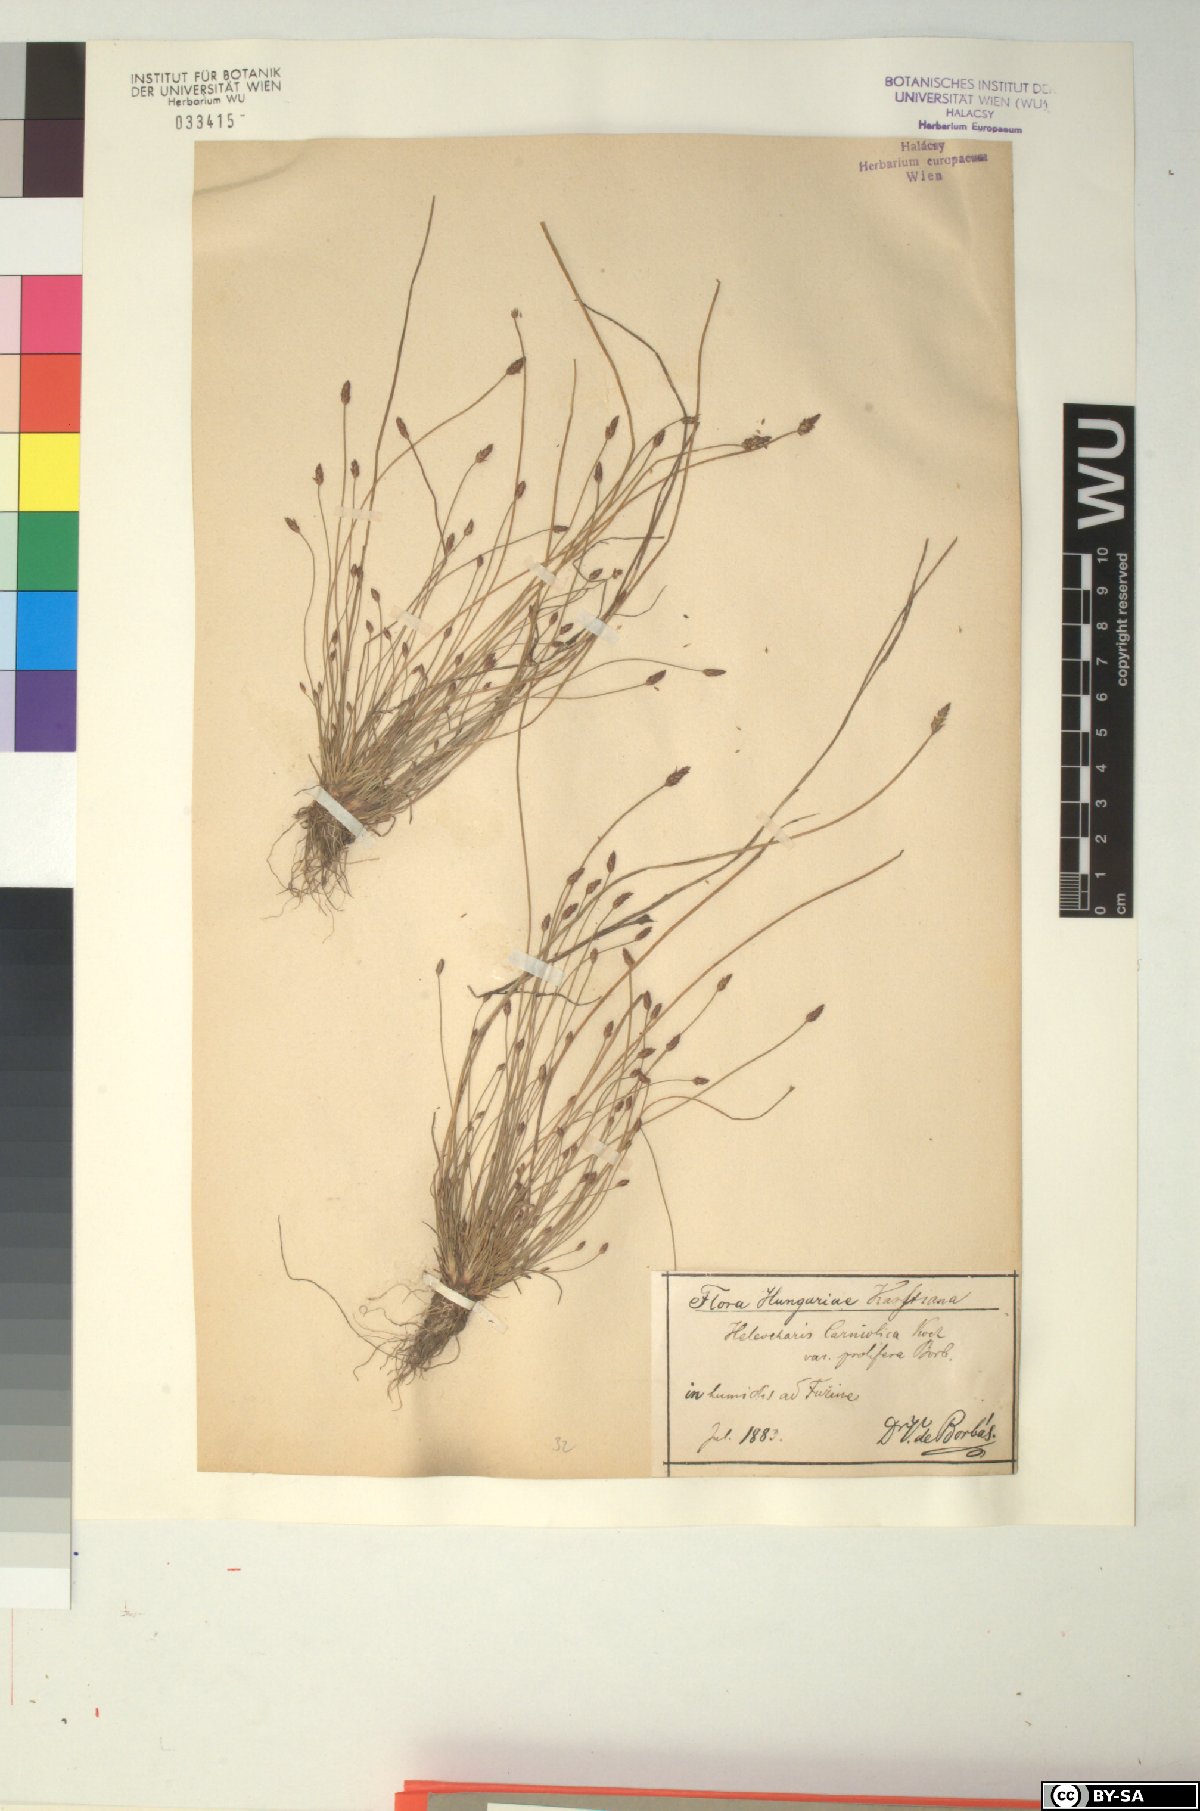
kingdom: Plantae
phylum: Tracheophyta
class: Liliopsida
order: Poales
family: Cyperaceae
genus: Eleocharis
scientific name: Eleocharis carniolica
